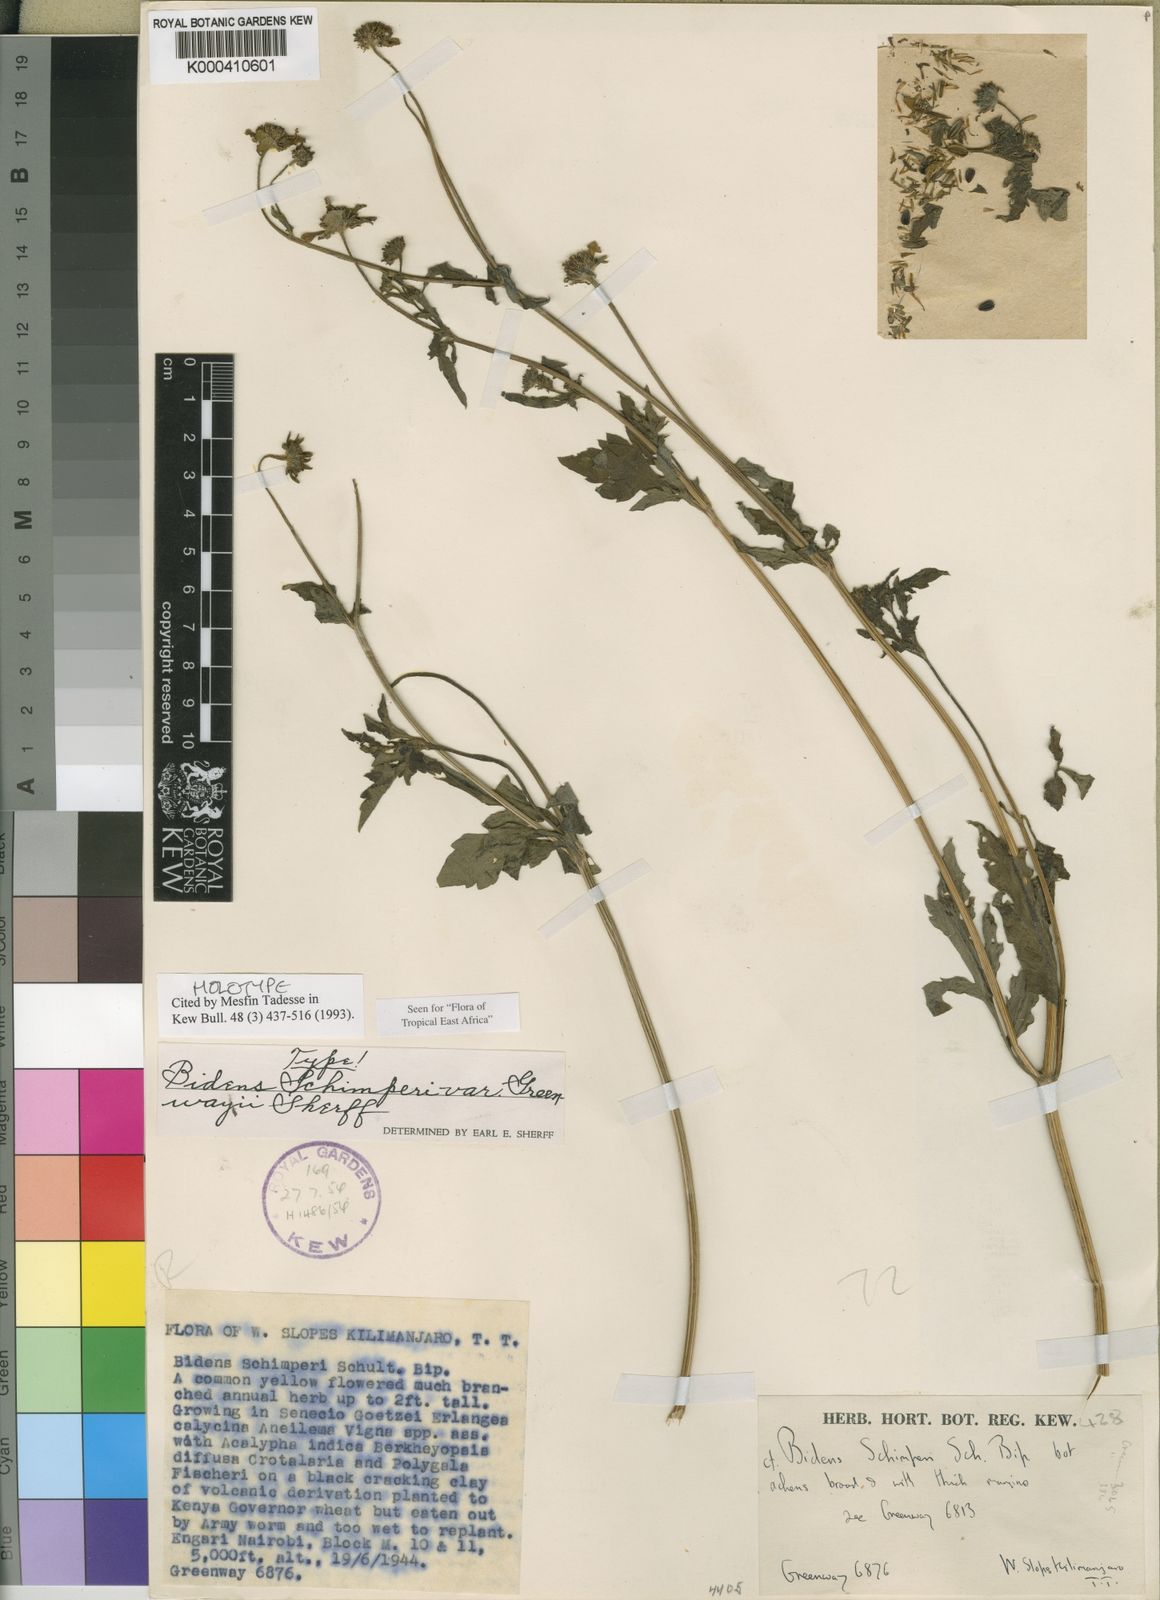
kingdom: Plantae
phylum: Tracheophyta
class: Magnoliopsida
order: Asterales
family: Asteraceae
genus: Bidens
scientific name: Bidens schimperi
